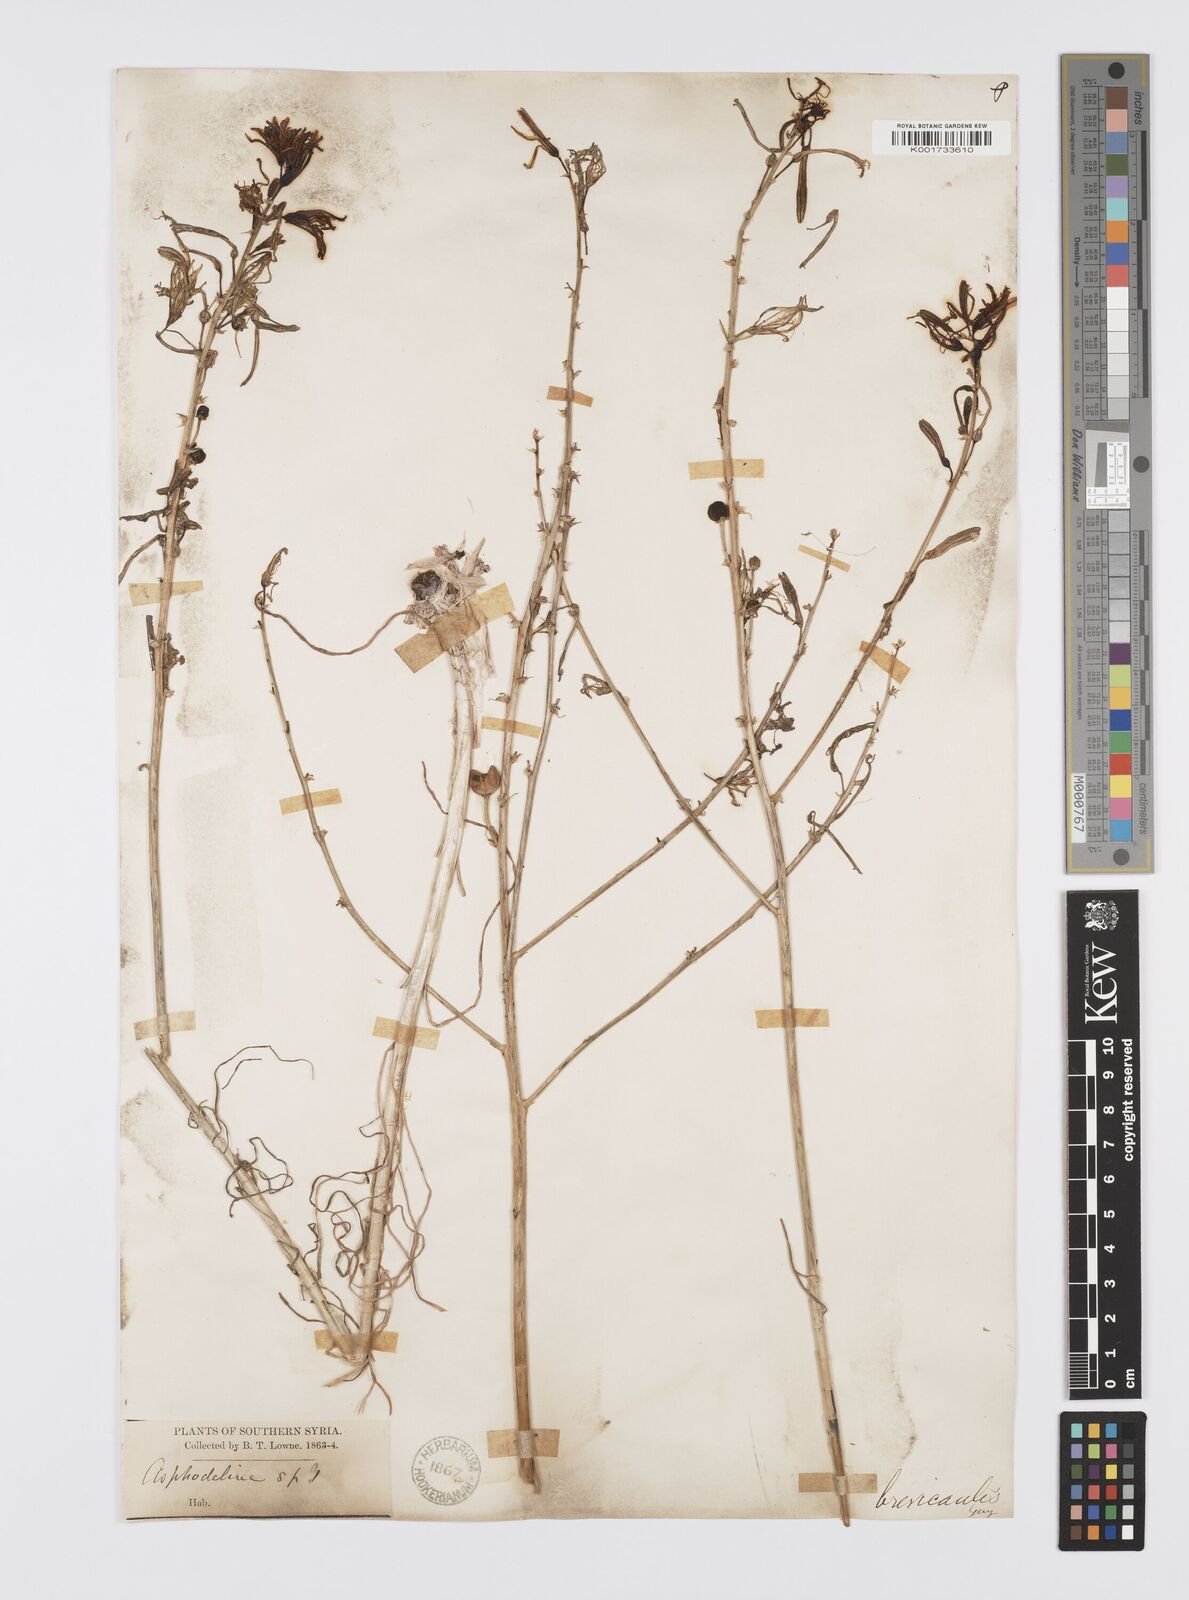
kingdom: Plantae
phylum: Tracheophyta
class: Liliopsida
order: Asparagales
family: Asphodelaceae
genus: Asphodeline
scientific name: Asphodeline brevicaulis
